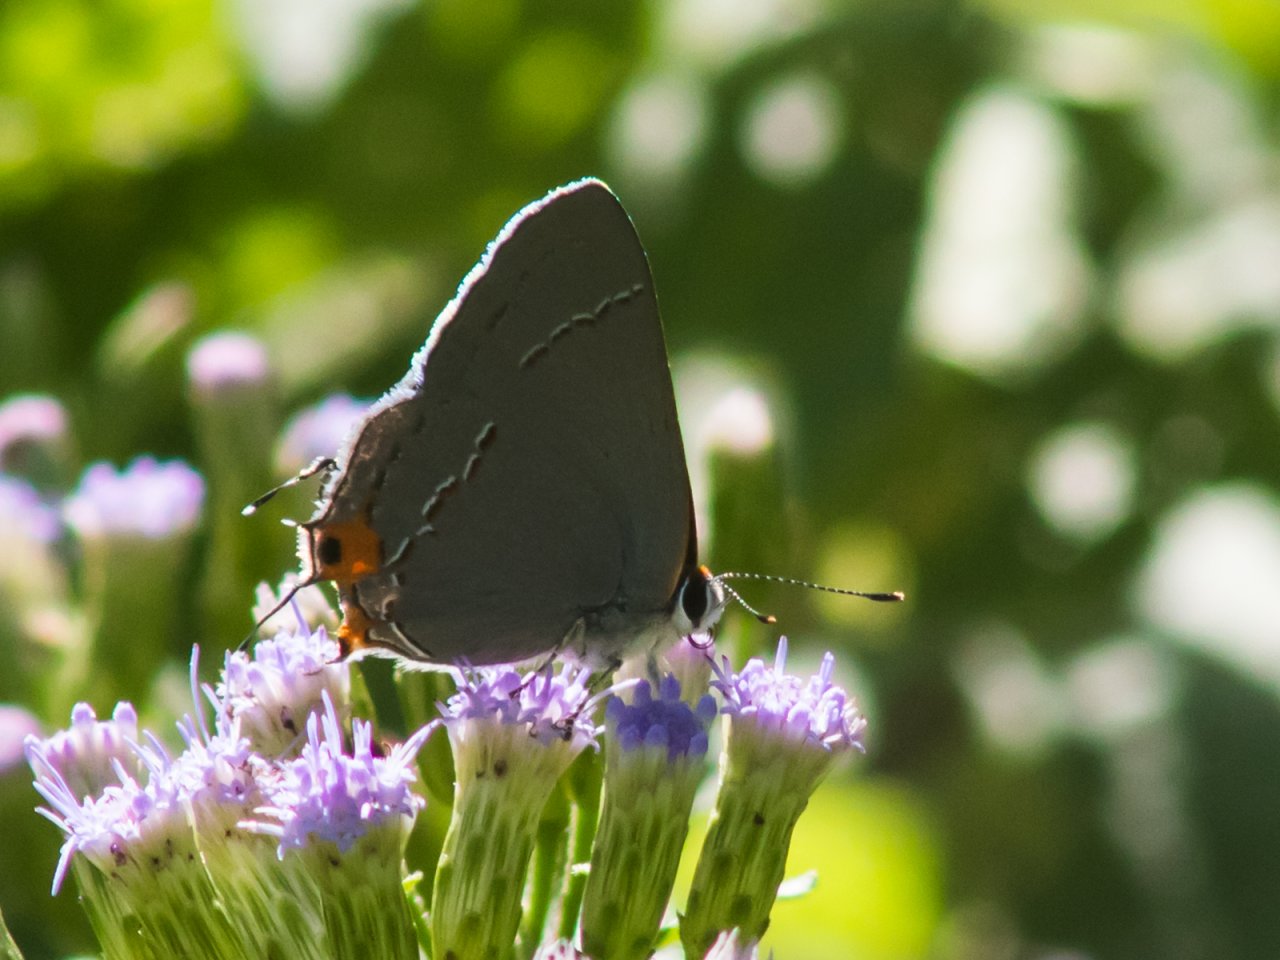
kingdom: Animalia
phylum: Arthropoda
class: Insecta
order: Lepidoptera
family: Lycaenidae
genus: Strymon
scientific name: Strymon melinus
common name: Gray Hairstreak
